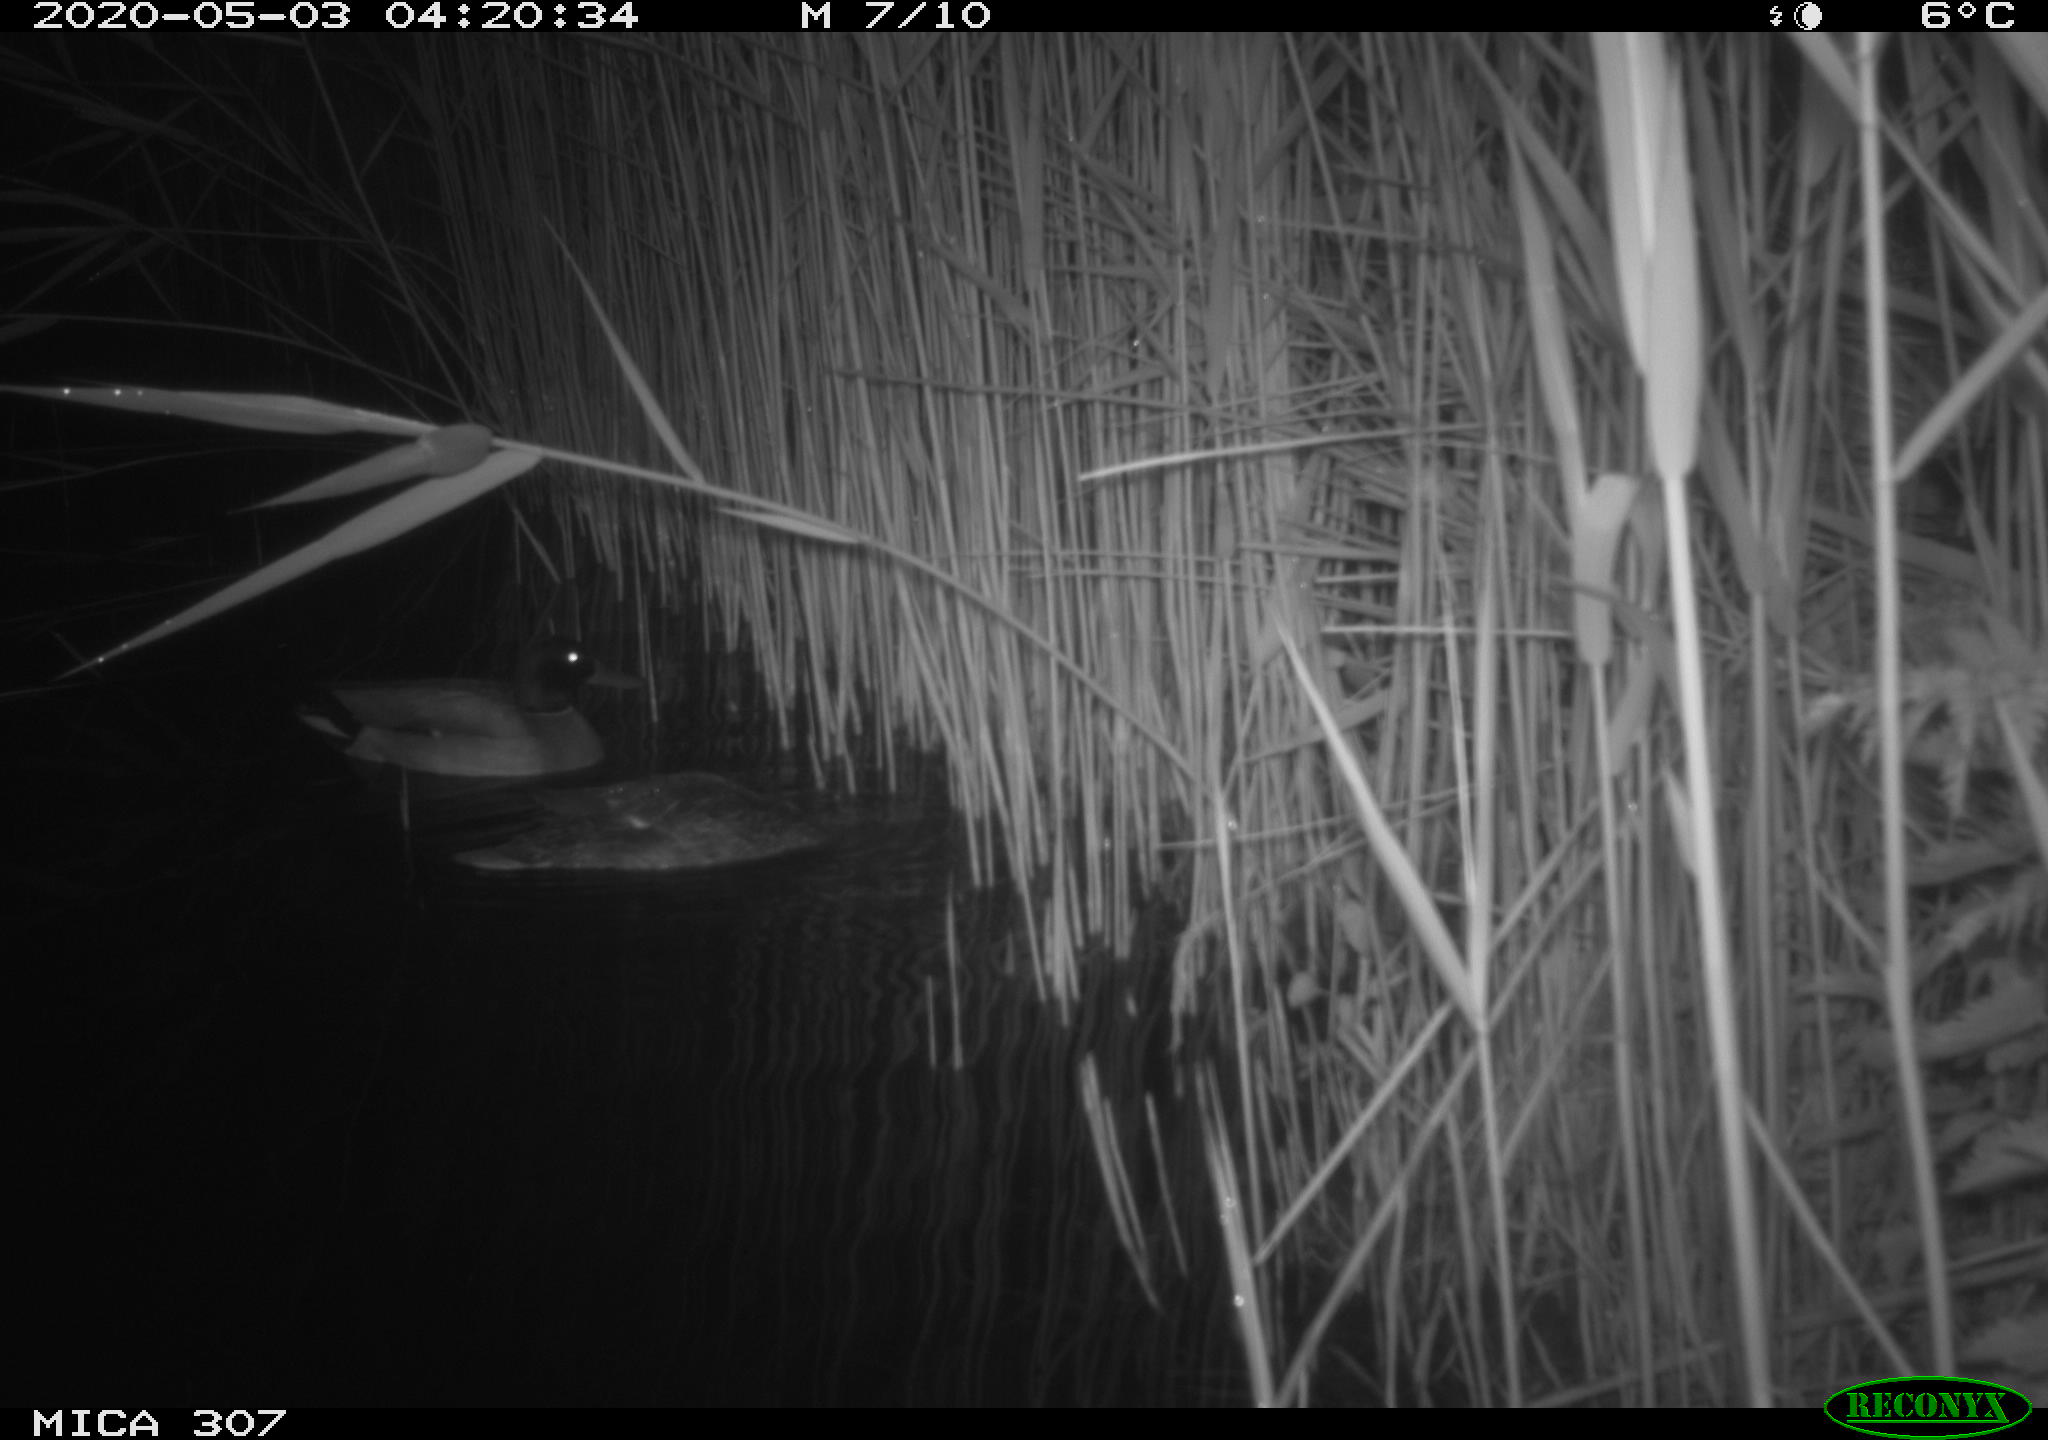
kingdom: Animalia
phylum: Chordata
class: Aves
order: Anseriformes
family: Anatidae
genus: Anas
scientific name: Anas platyrhynchos
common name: Mallard
